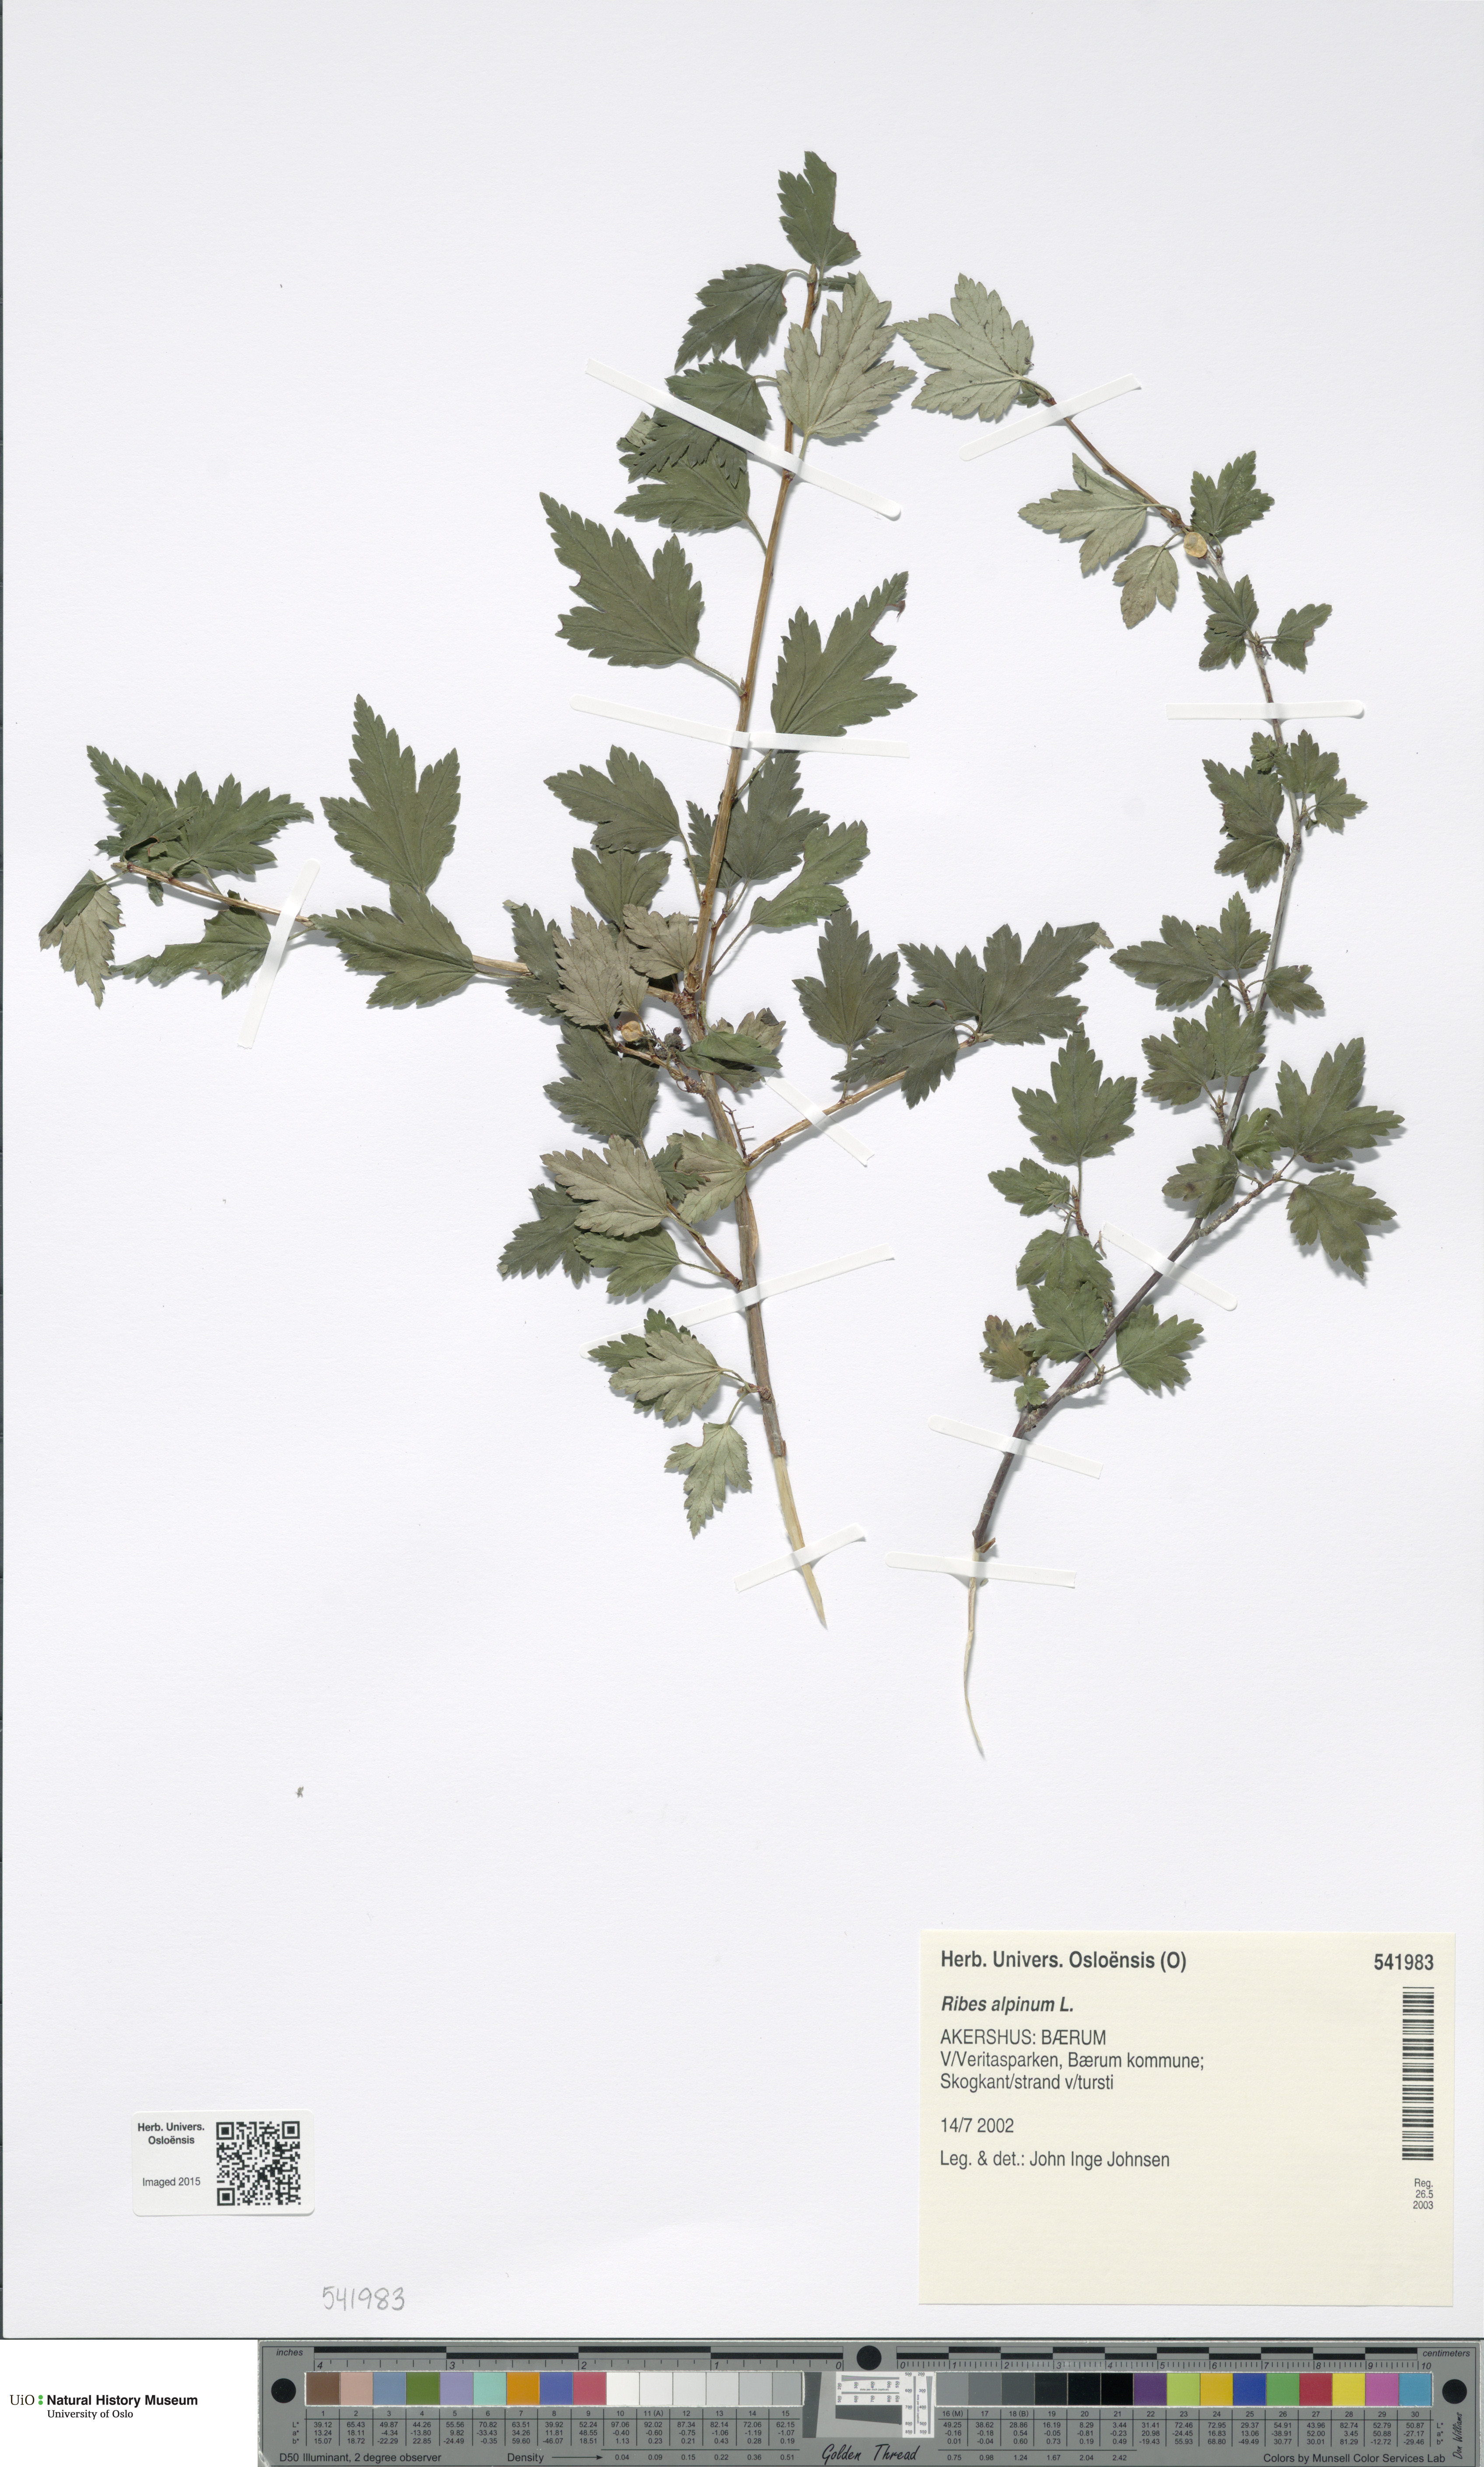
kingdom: Plantae
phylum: Tracheophyta
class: Magnoliopsida
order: Saxifragales
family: Grossulariaceae
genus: Ribes
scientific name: Ribes alpinum
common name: Alpine currant
